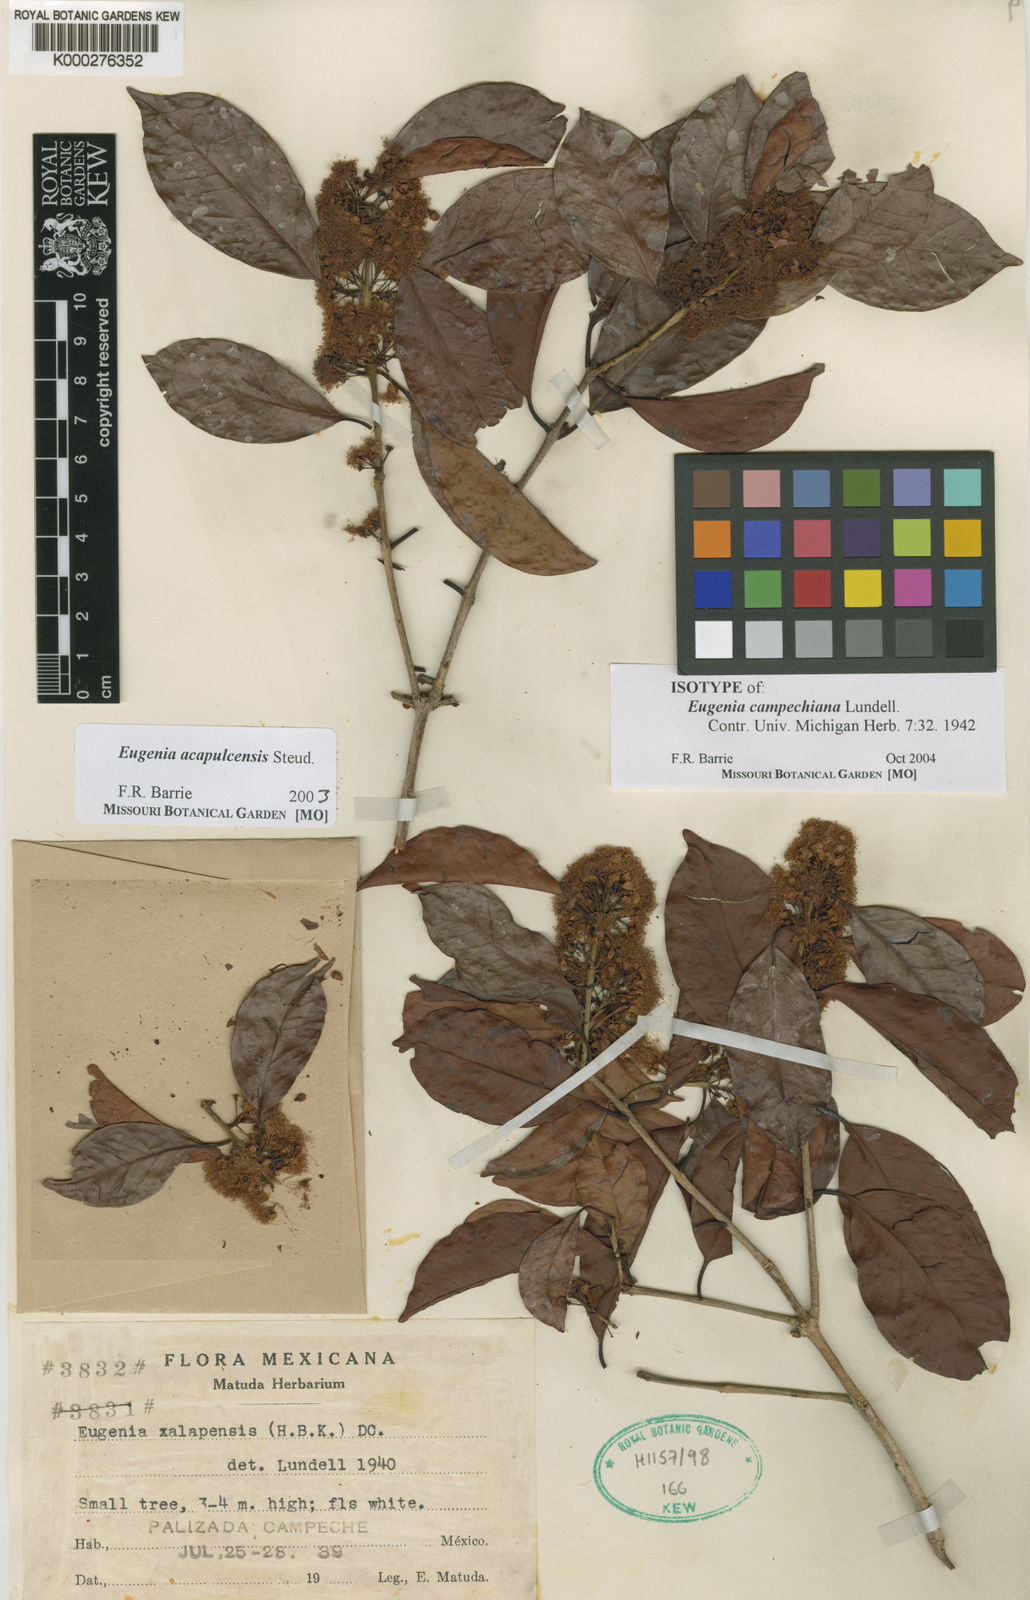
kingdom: Plantae
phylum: Tracheophyta
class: Magnoliopsida
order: Myrtales
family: Myrtaceae
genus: Eugenia
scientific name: Eugenia acapulcensis
